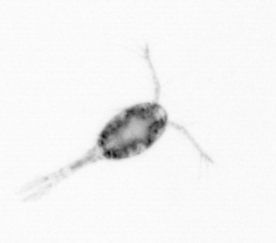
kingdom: Animalia
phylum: Arthropoda
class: Copepoda
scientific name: Copepoda
